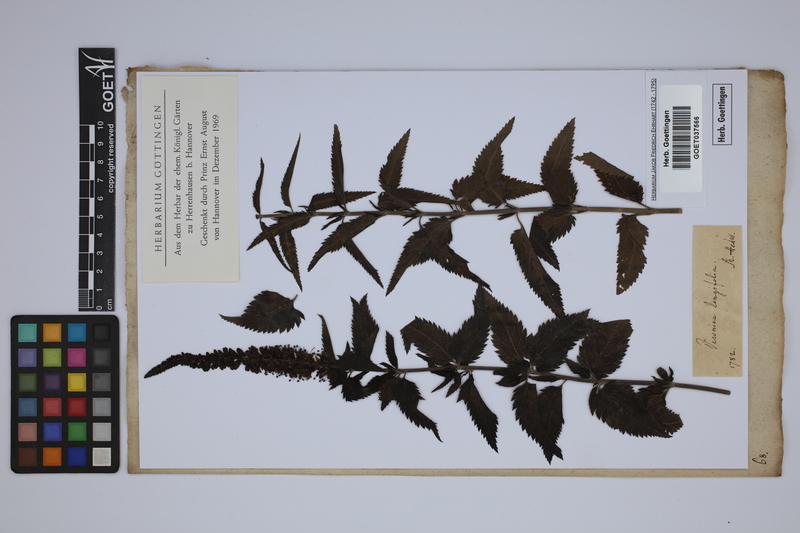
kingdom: Plantae
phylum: Tracheophyta
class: Magnoliopsida
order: Lamiales
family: Plantaginaceae
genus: Veronica
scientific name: Veronica longifolia
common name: Garden speedwell
